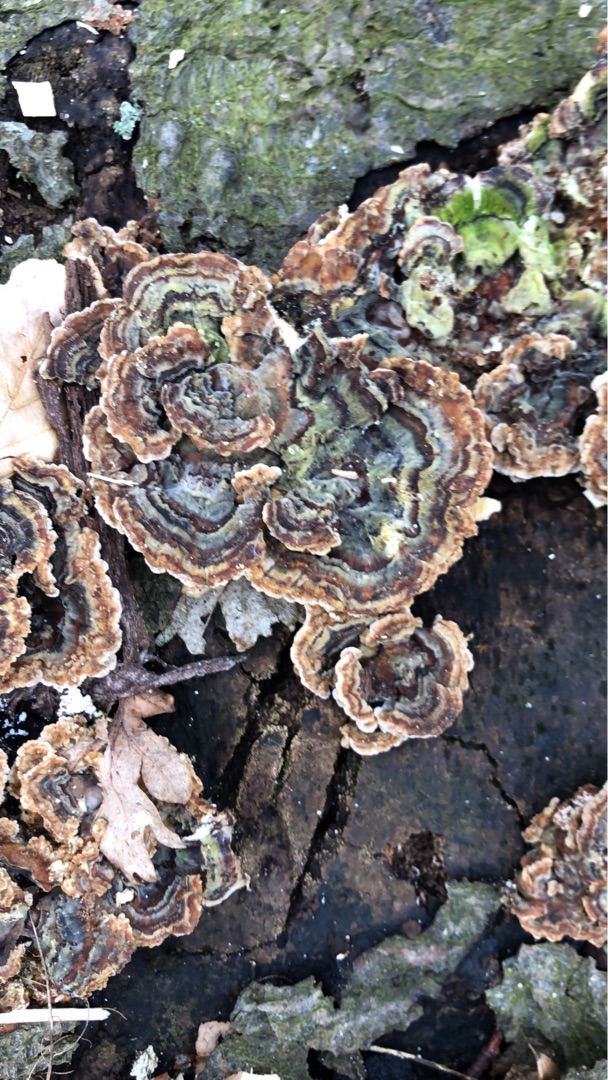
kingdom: Fungi
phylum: Basidiomycota
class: Agaricomycetes
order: Polyporales
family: Polyporaceae
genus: Trametes
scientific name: Trametes versicolor
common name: Broget læderporesvamp
